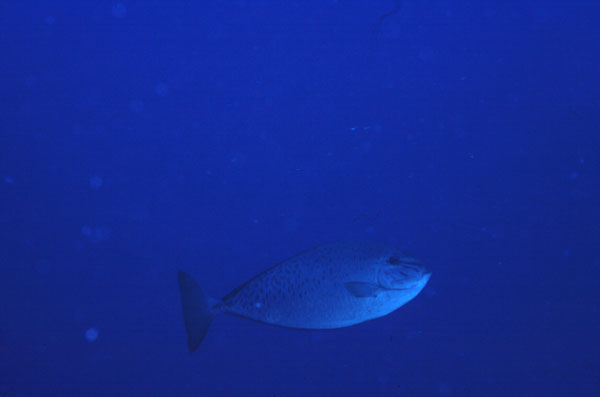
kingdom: Animalia
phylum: Chordata
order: Perciformes
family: Acanthuridae
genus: Naso
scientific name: Naso caesius
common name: Gray unicornfish
